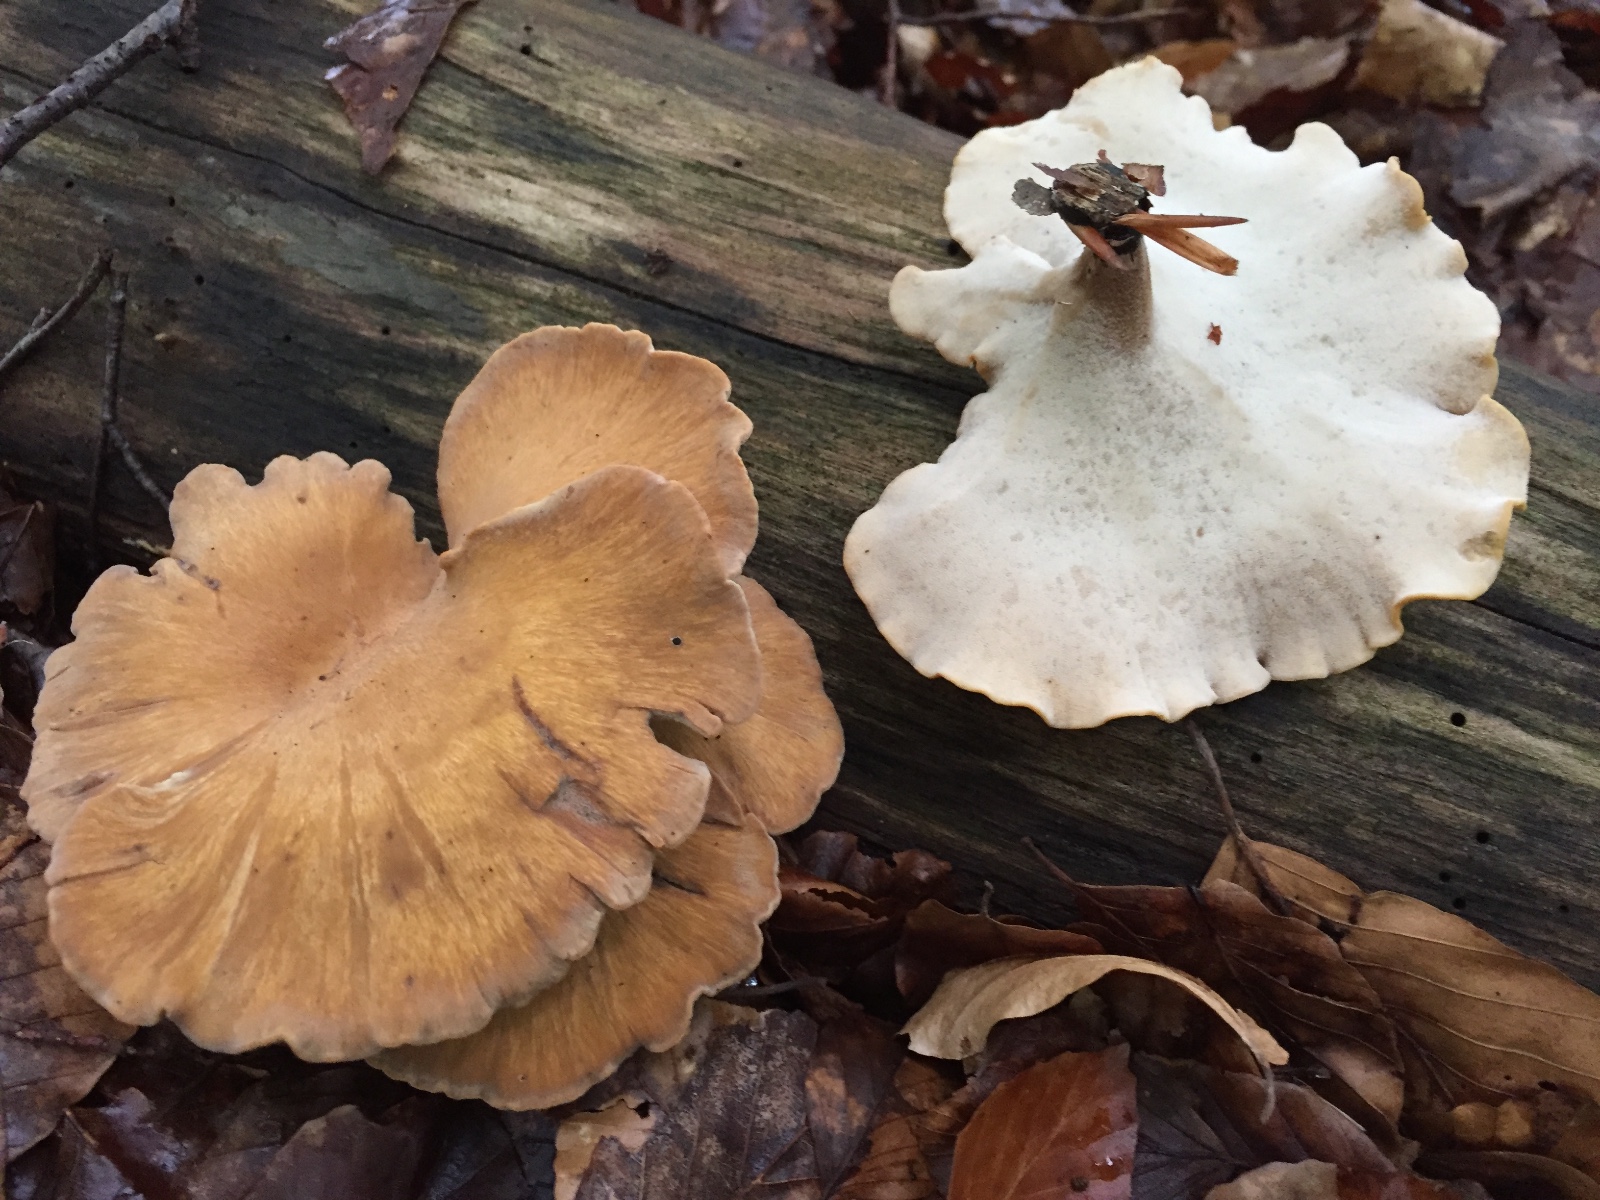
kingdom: Fungi
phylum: Basidiomycota
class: Agaricomycetes
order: Polyporales
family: Polyporaceae
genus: Cerioporus
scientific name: Cerioporus varius
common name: foranderlig stilkporesvamp
